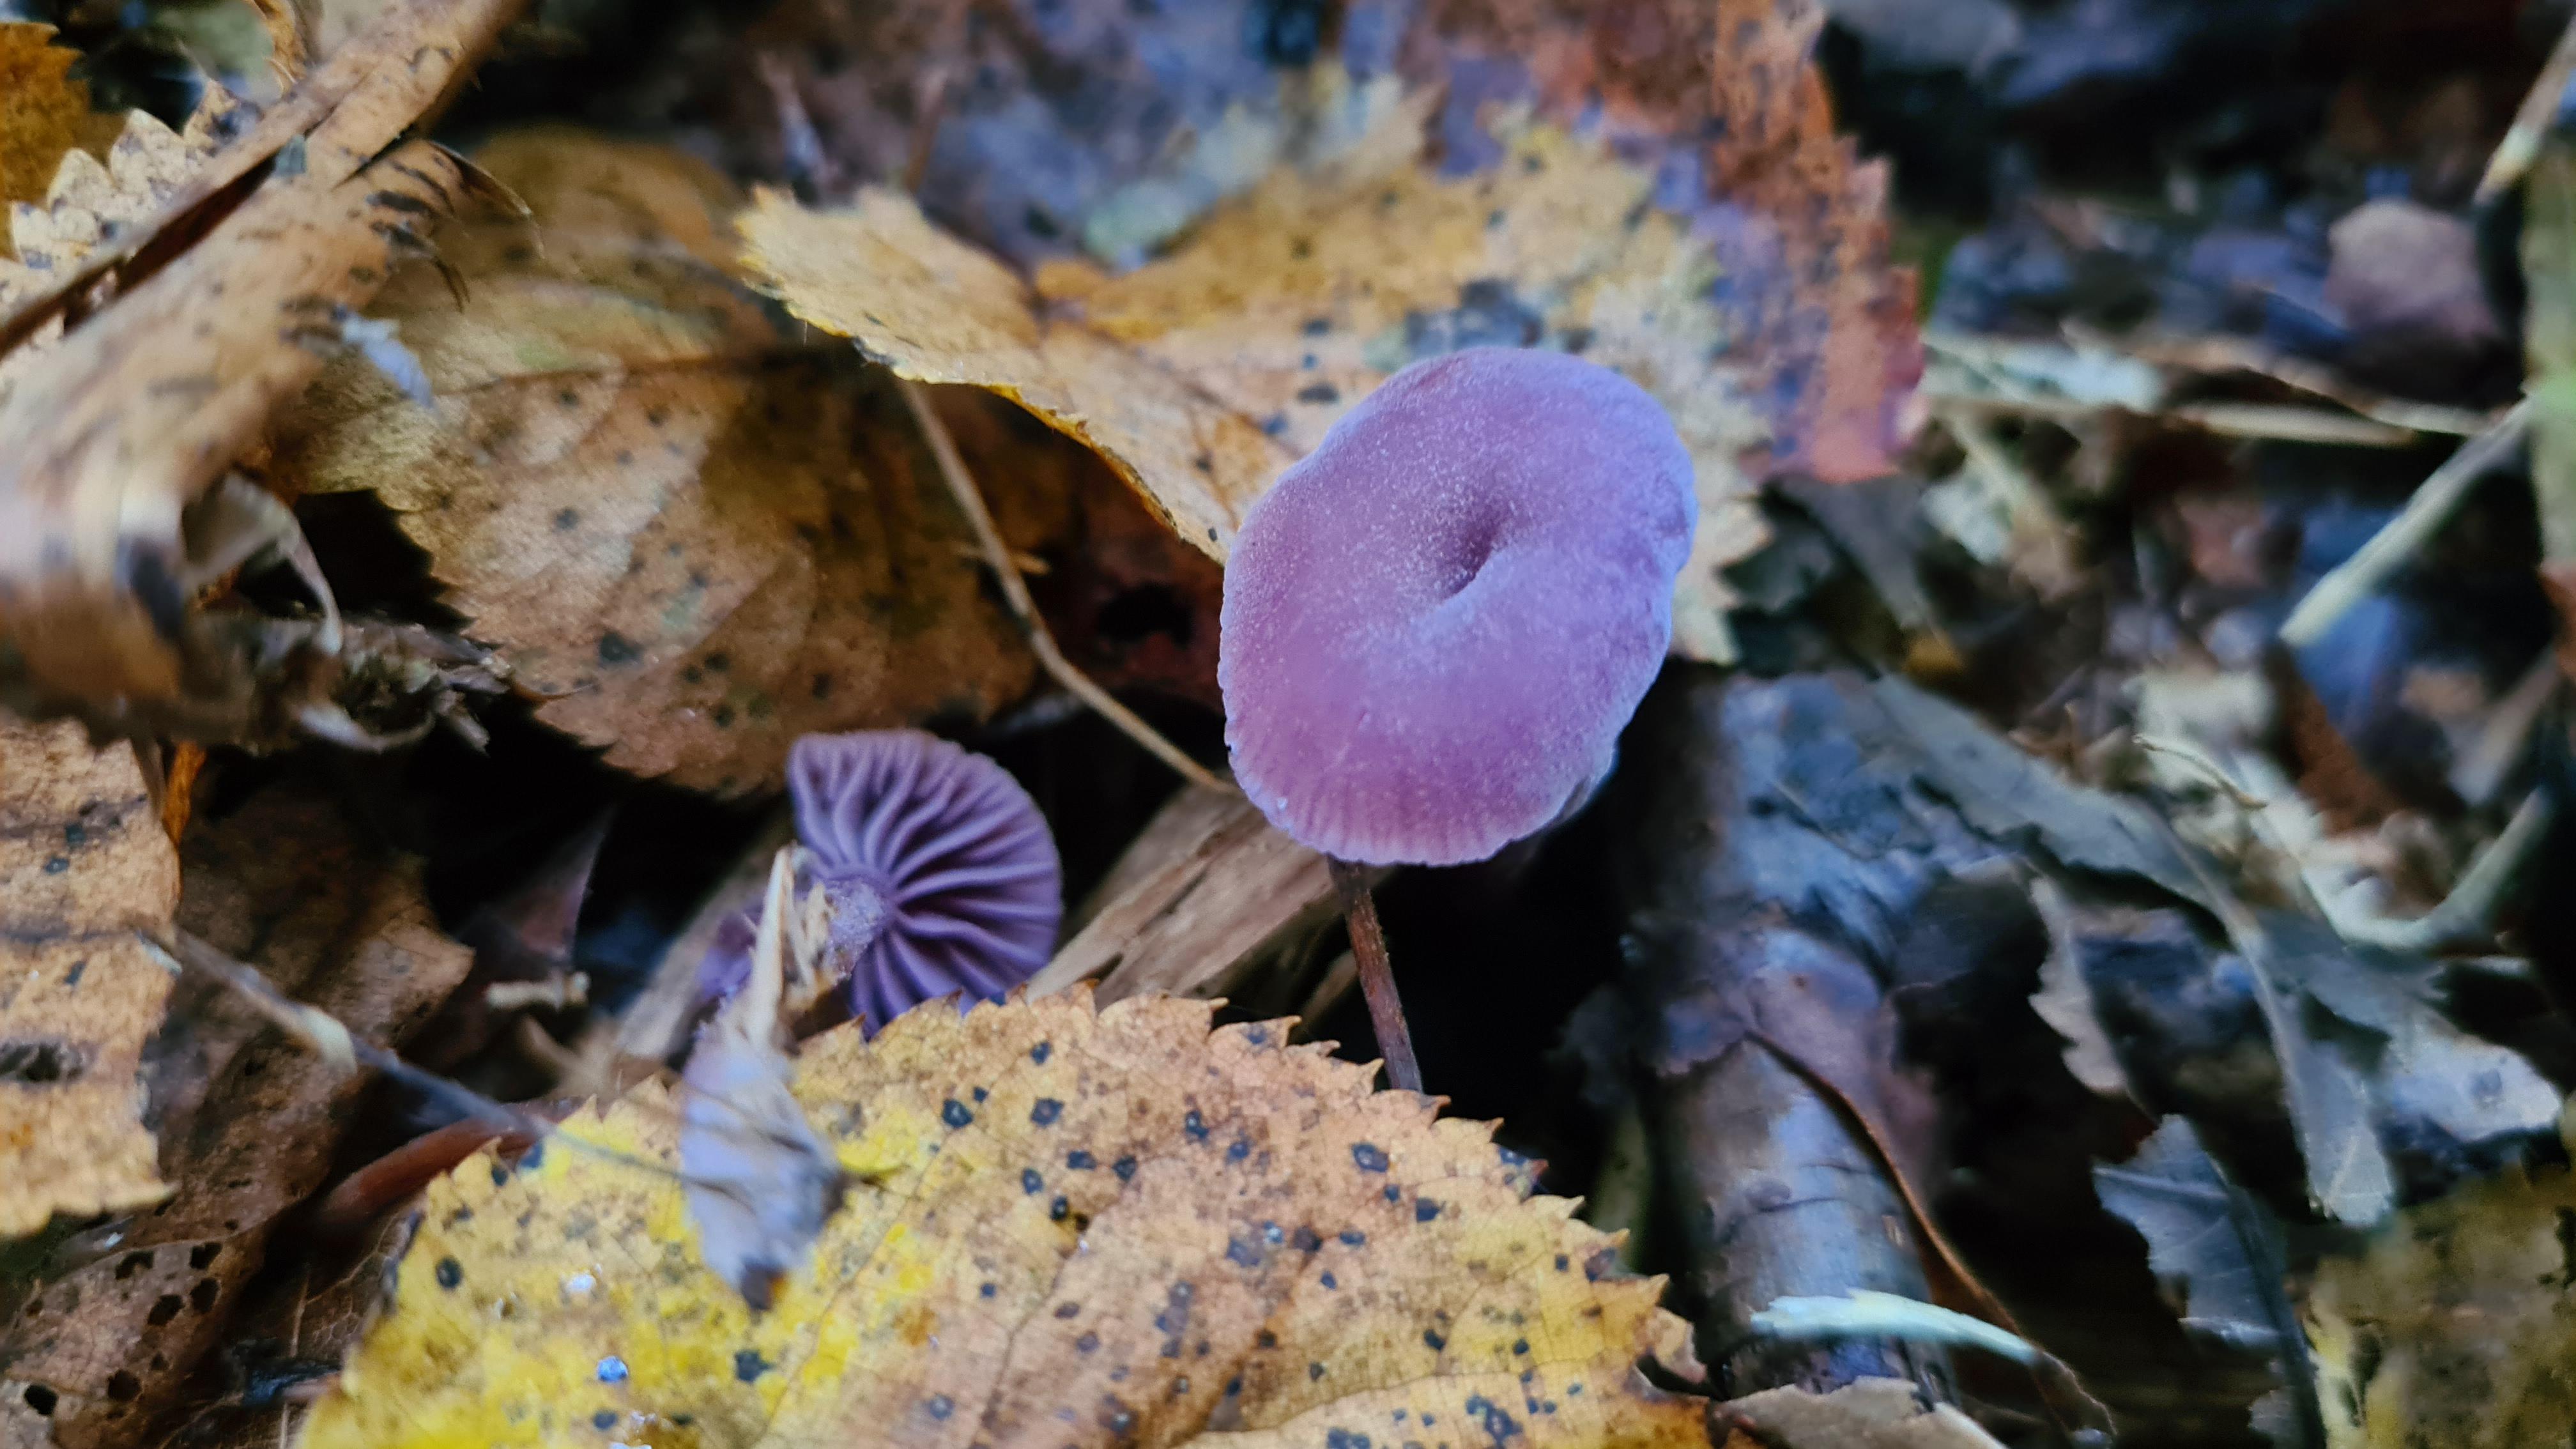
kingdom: Fungi
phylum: Basidiomycota
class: Agaricomycetes
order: Agaricales
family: Hydnangiaceae
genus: Laccaria
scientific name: Laccaria amethystina
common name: violet ametysthat
